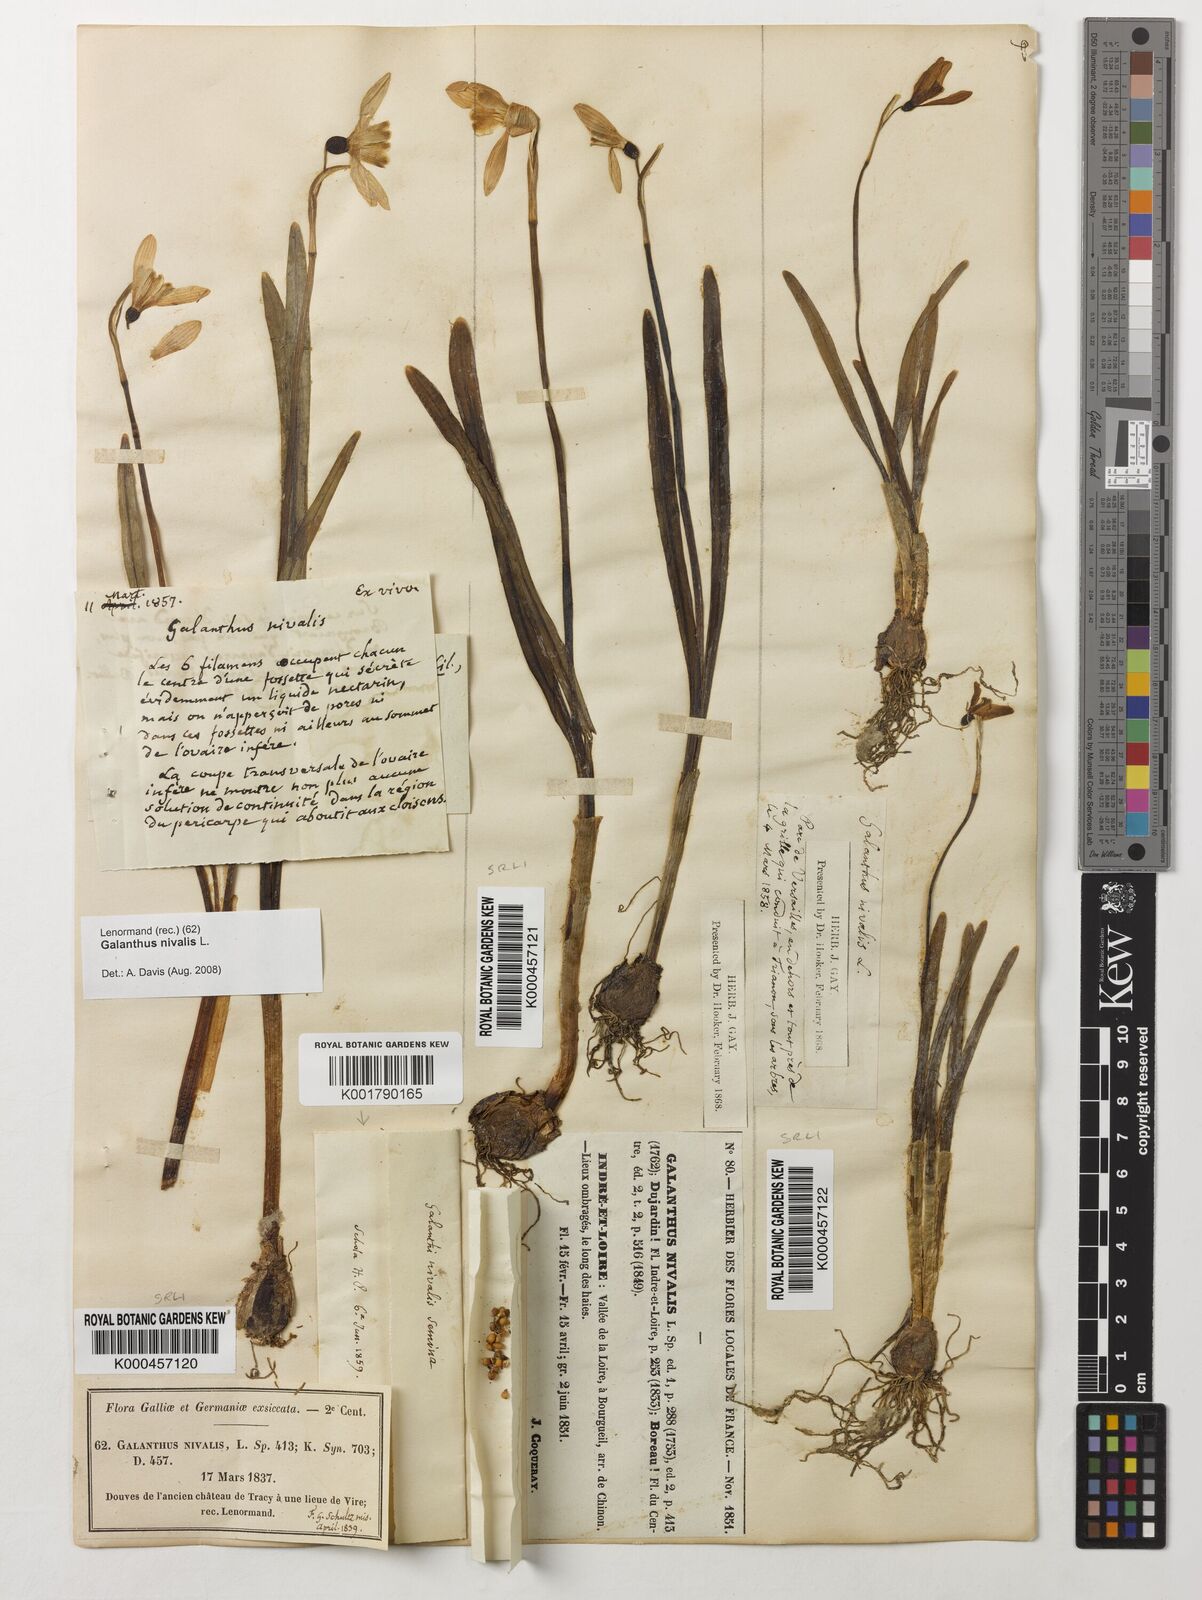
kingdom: Plantae
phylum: Tracheophyta
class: Liliopsida
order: Asparagales
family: Amaryllidaceae
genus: Galanthus
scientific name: Galanthus nivalis
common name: Snowdrop
